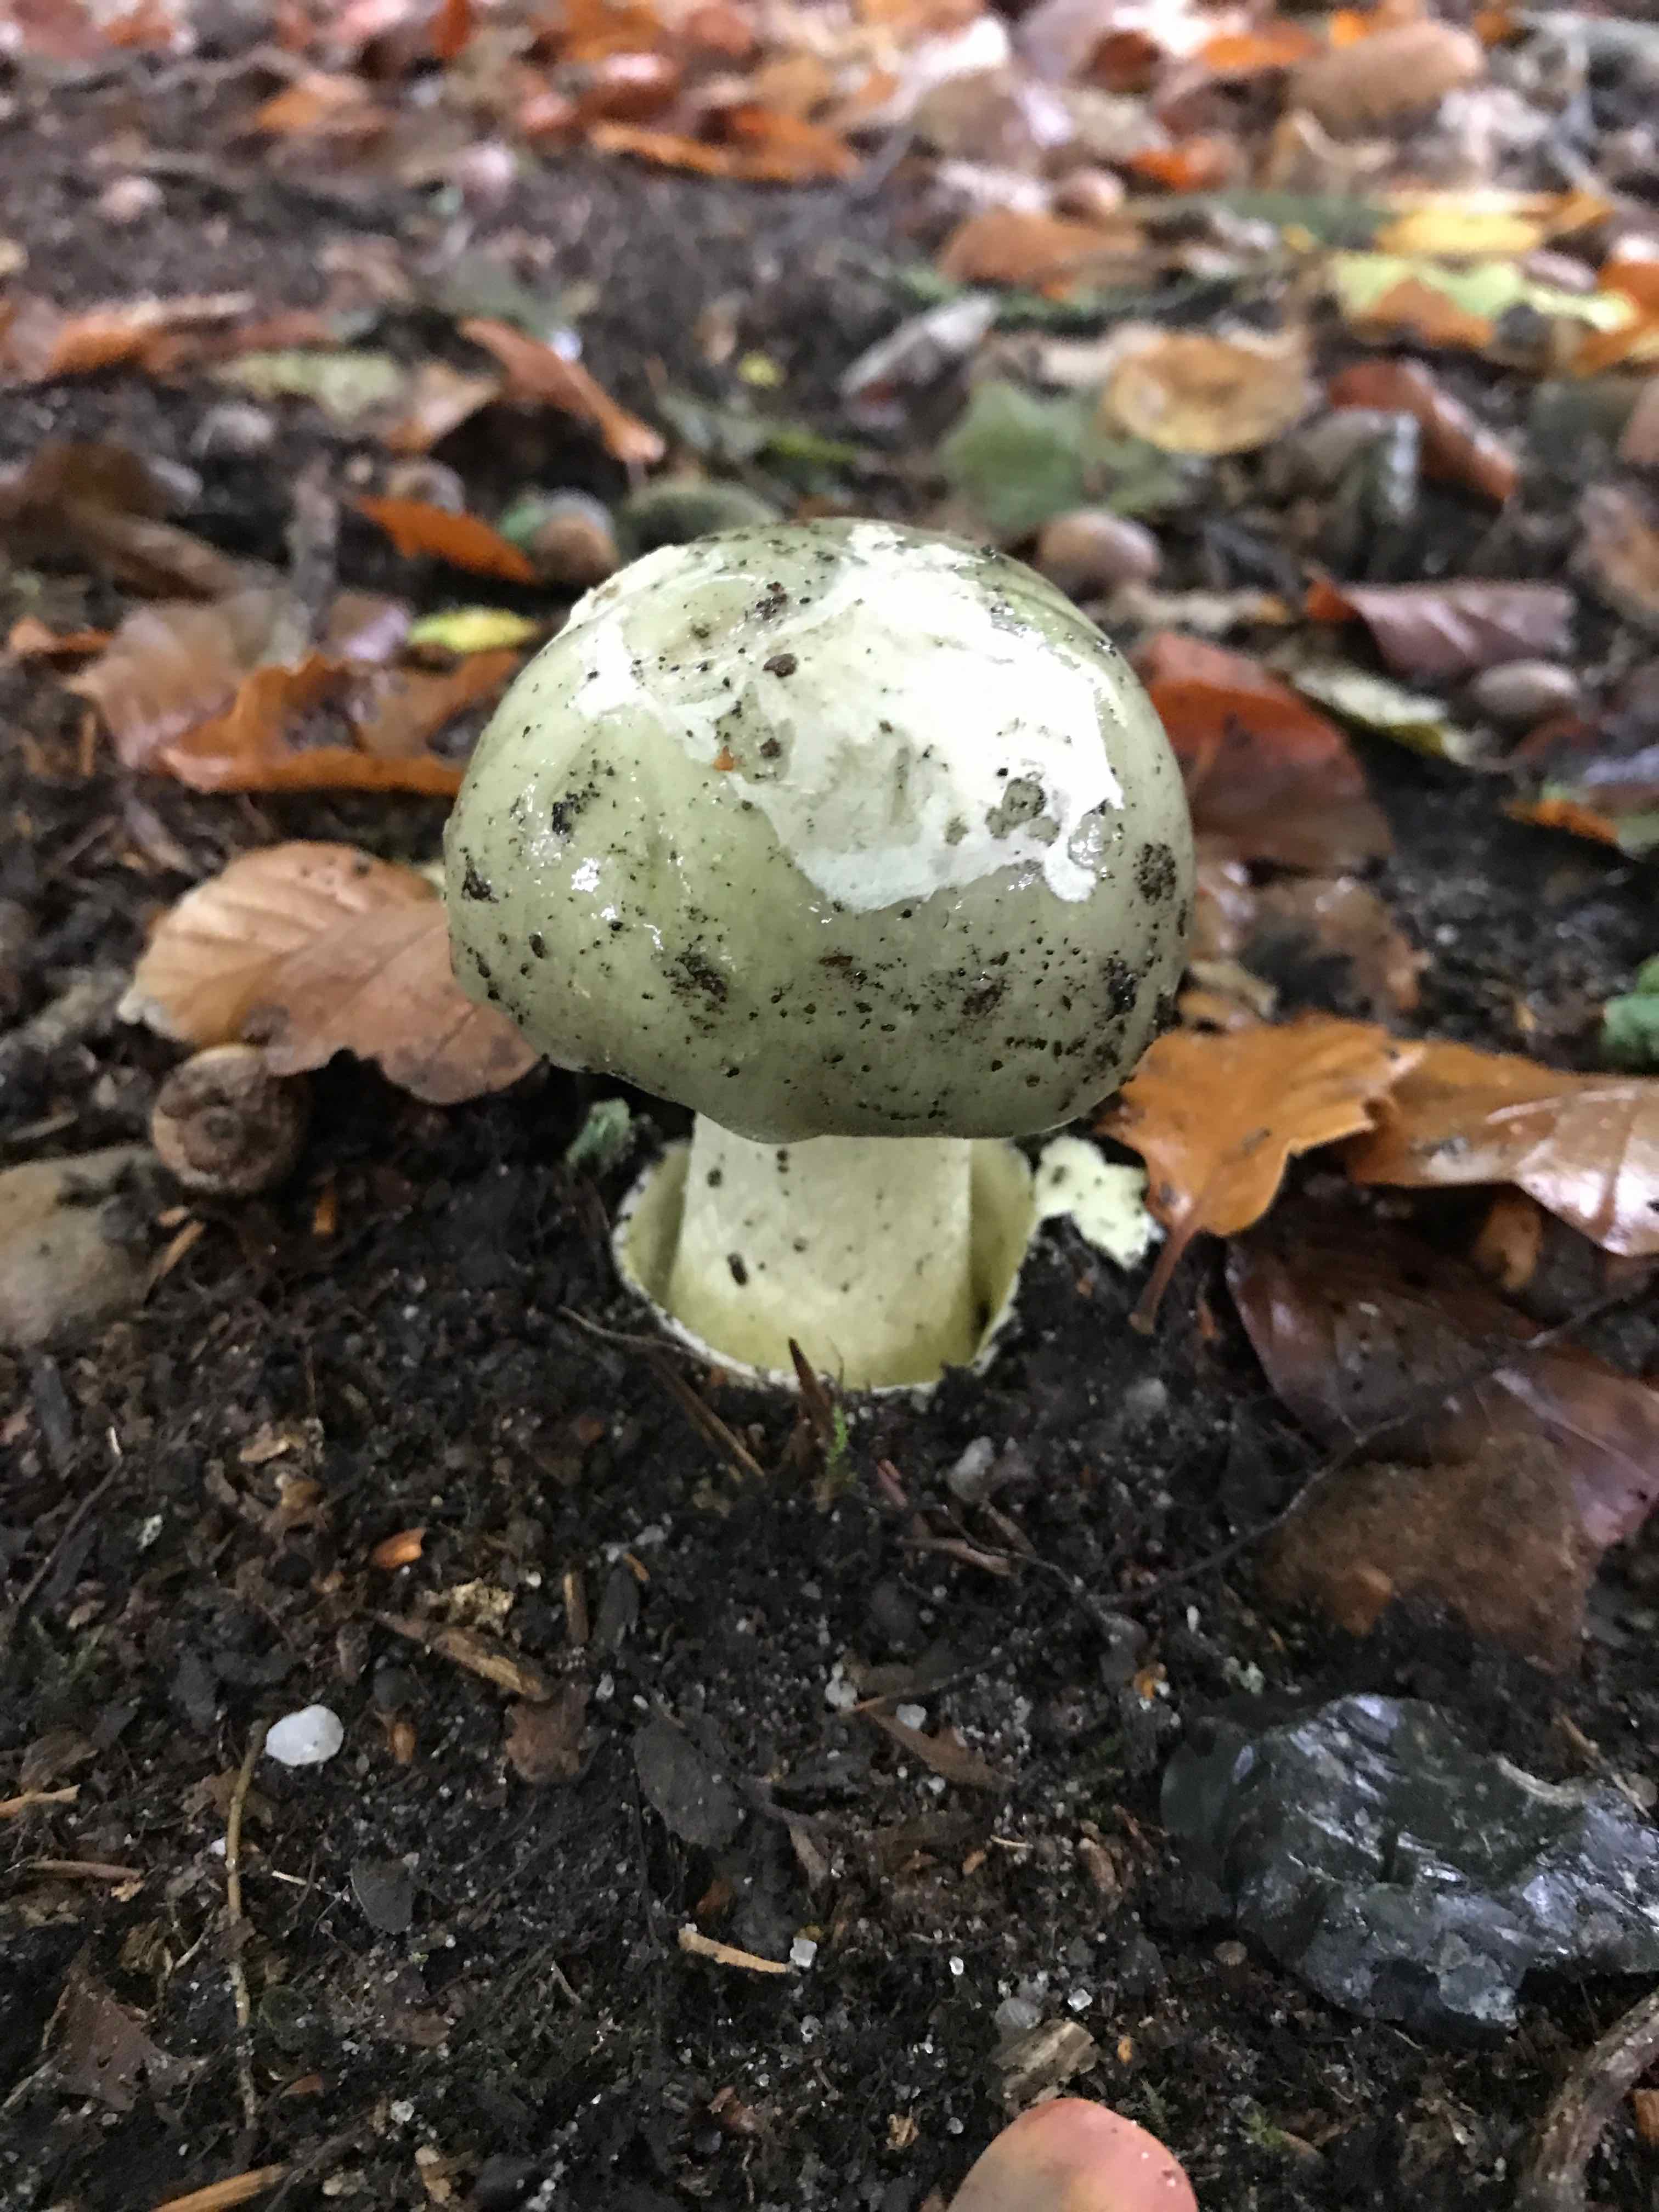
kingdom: Fungi
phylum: Basidiomycota
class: Agaricomycetes
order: Agaricales
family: Amanitaceae
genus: Amanita
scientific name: Amanita phalloides
